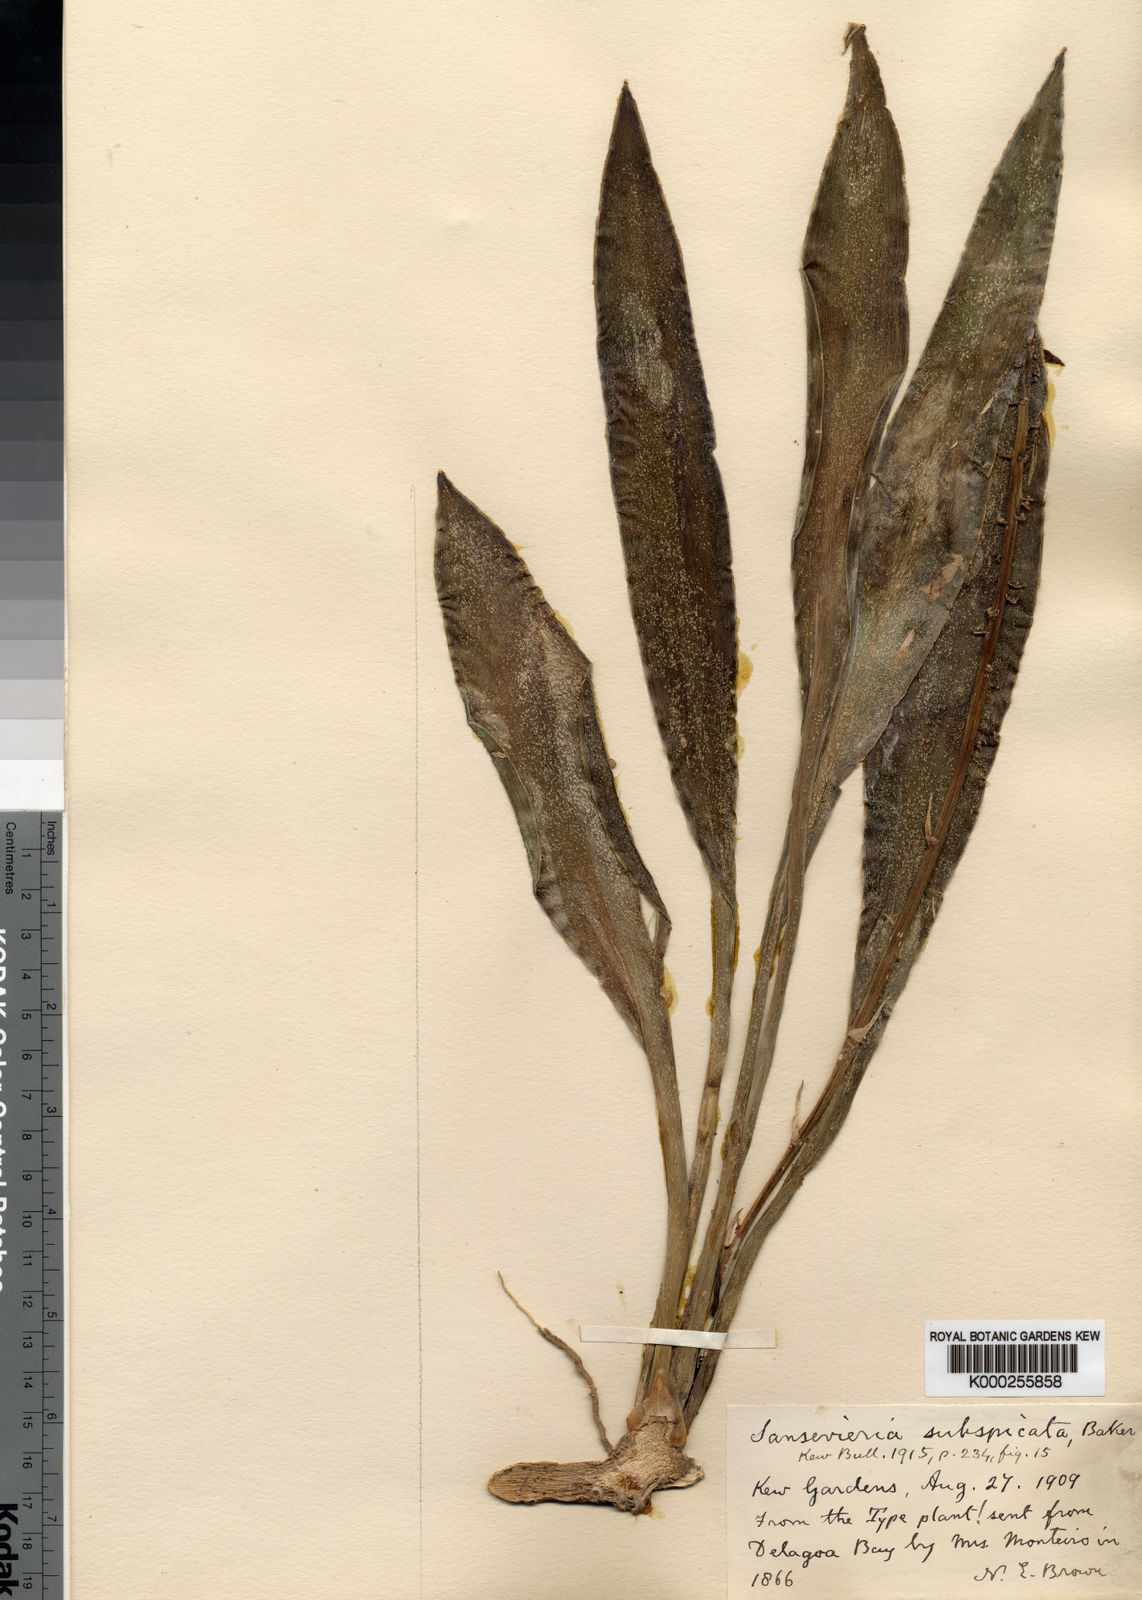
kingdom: Plantae
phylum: Tracheophyta
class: Liliopsida
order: Asparagales
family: Asparagaceae
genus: Dracaena
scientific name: Dracaena subspicata
